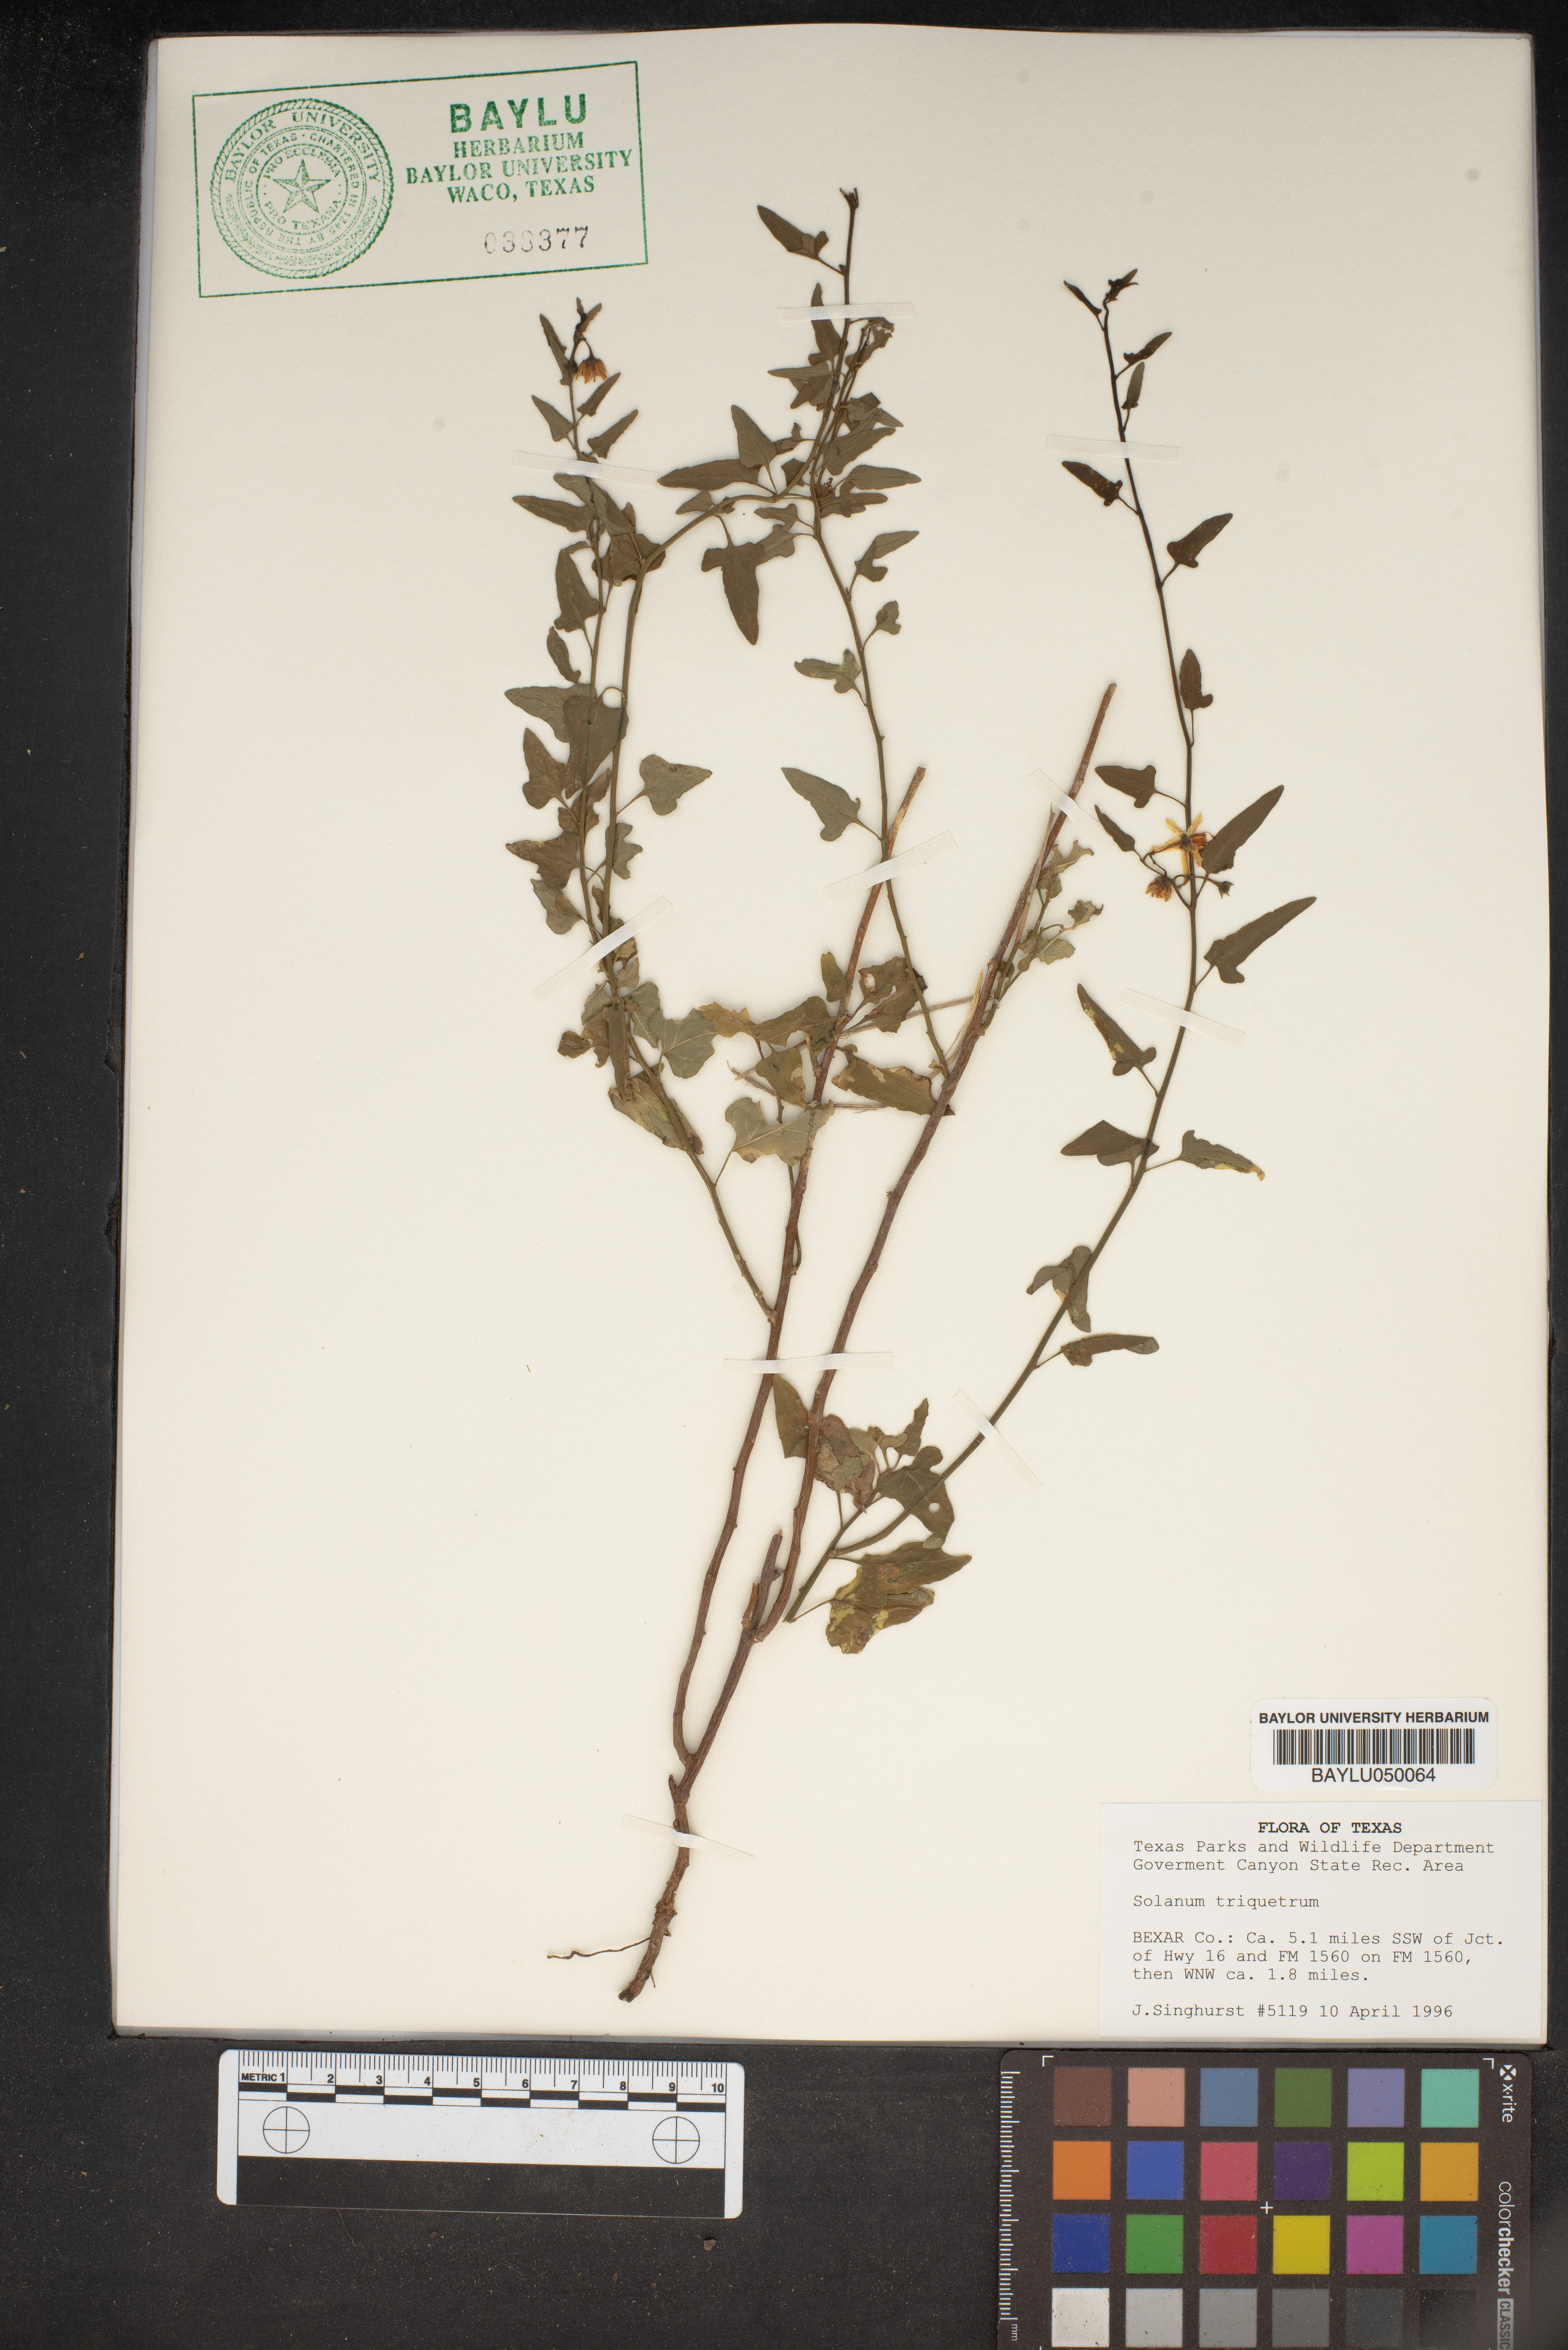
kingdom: Plantae
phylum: Tracheophyta
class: Magnoliopsida
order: Solanales
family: Solanaceae
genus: Solanum
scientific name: Solanum triquetrum
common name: Texas nightshade
